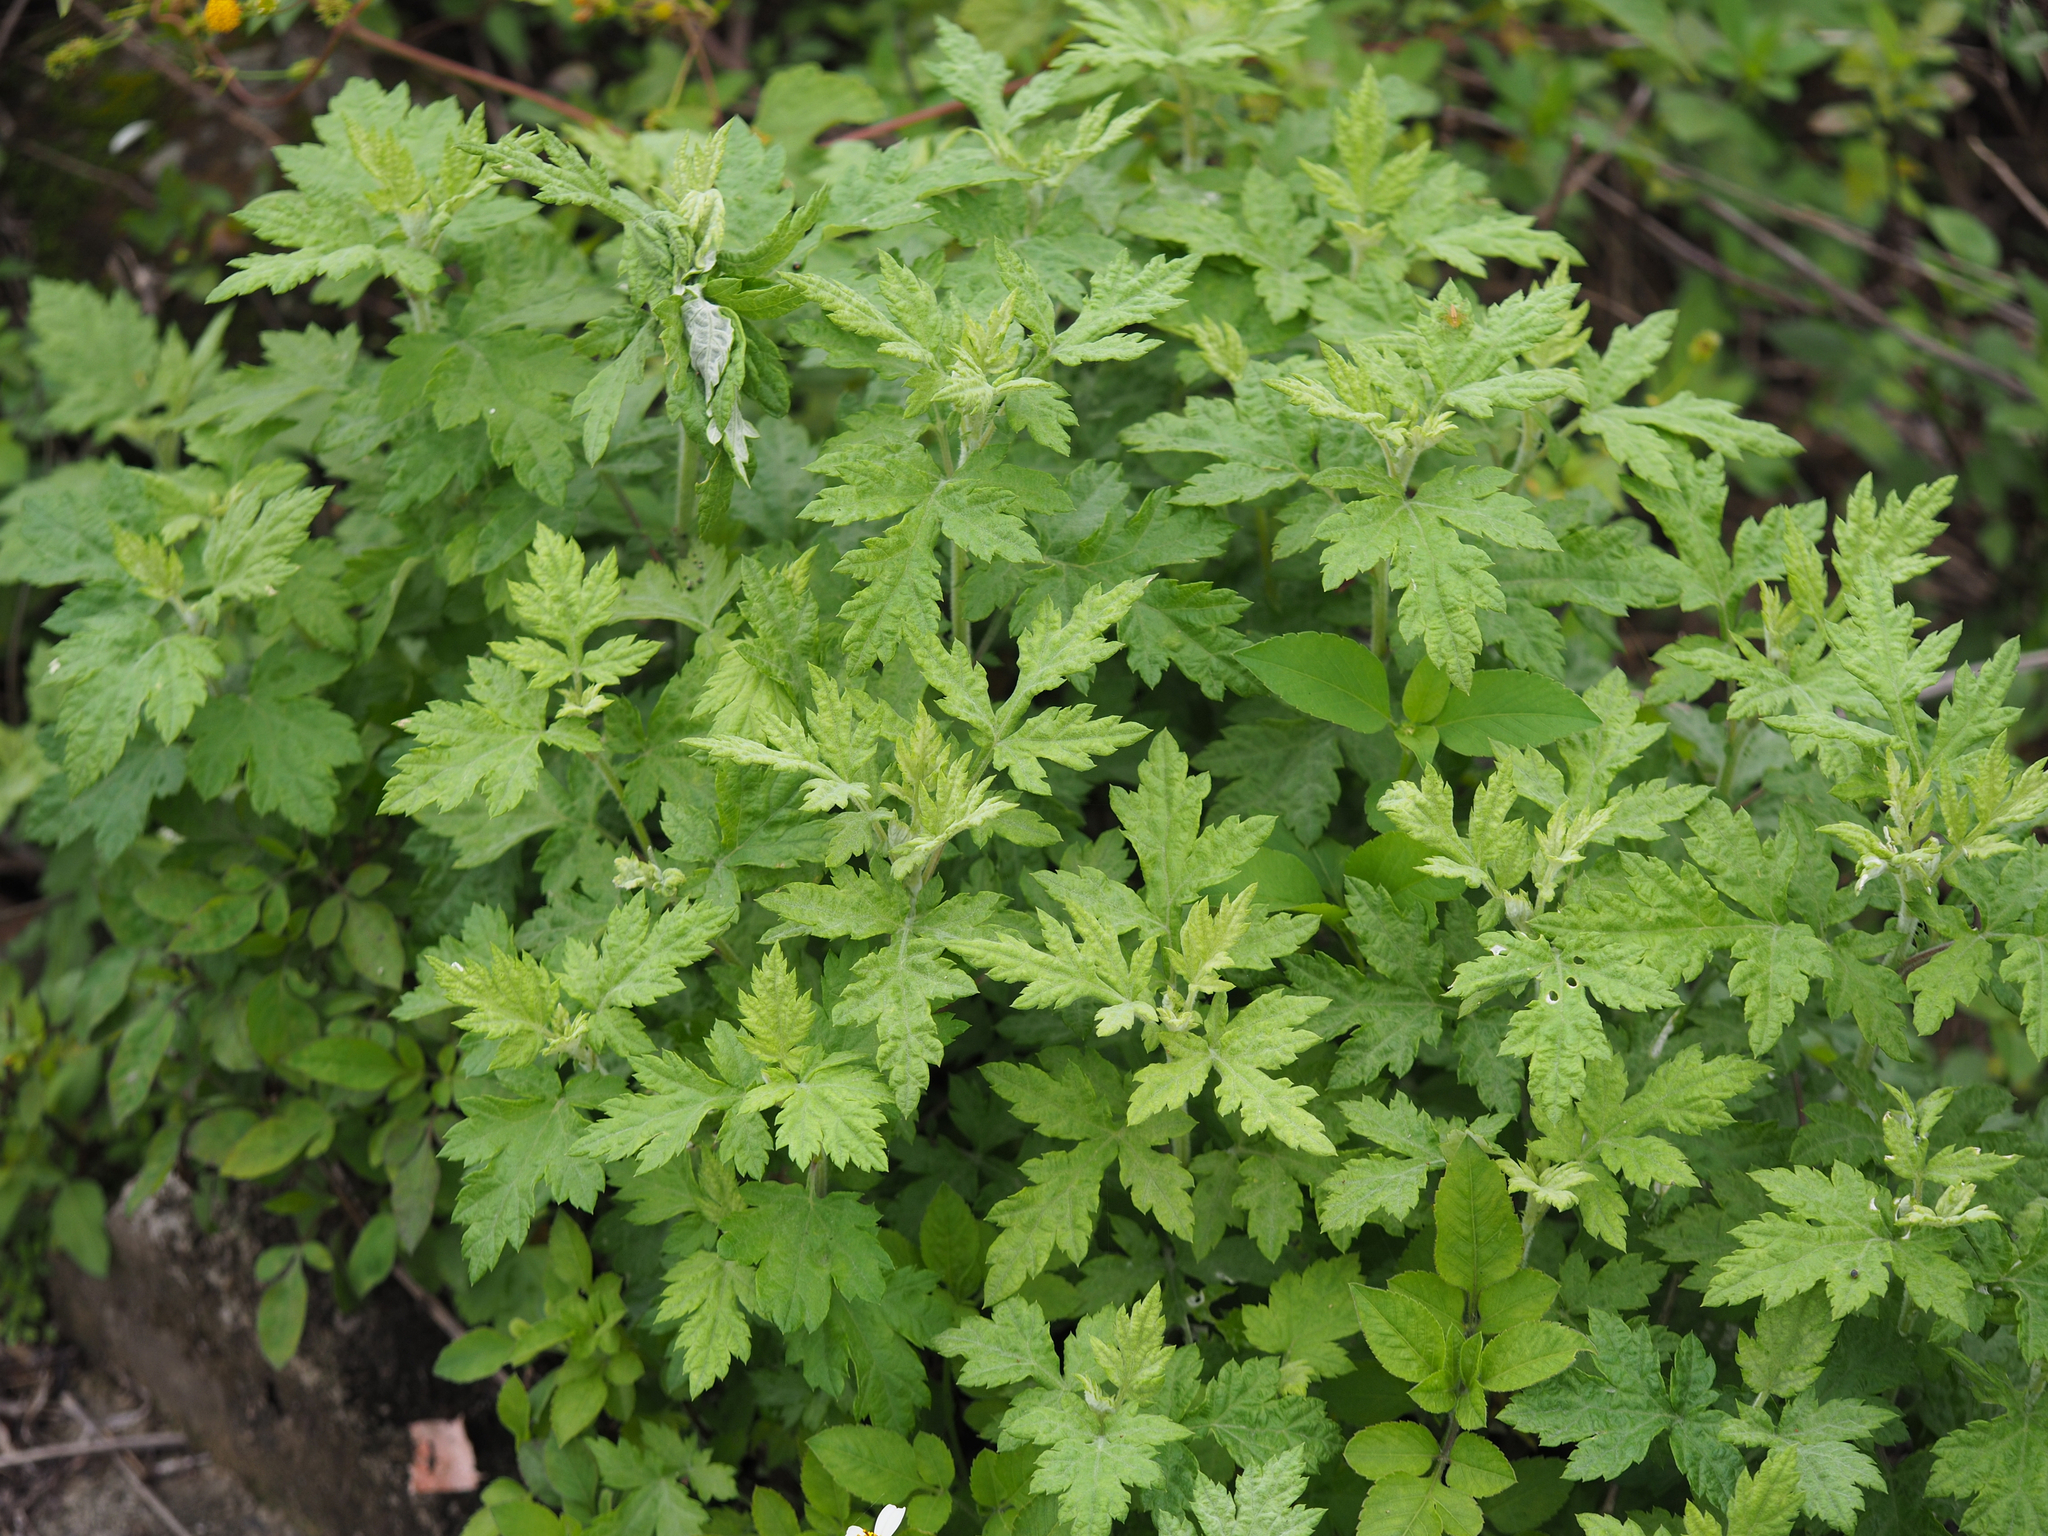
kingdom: Plantae
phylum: Tracheophyta
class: Magnoliopsida
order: Asterales
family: Asteraceae
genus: Artemisia
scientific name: Artemisia indica
